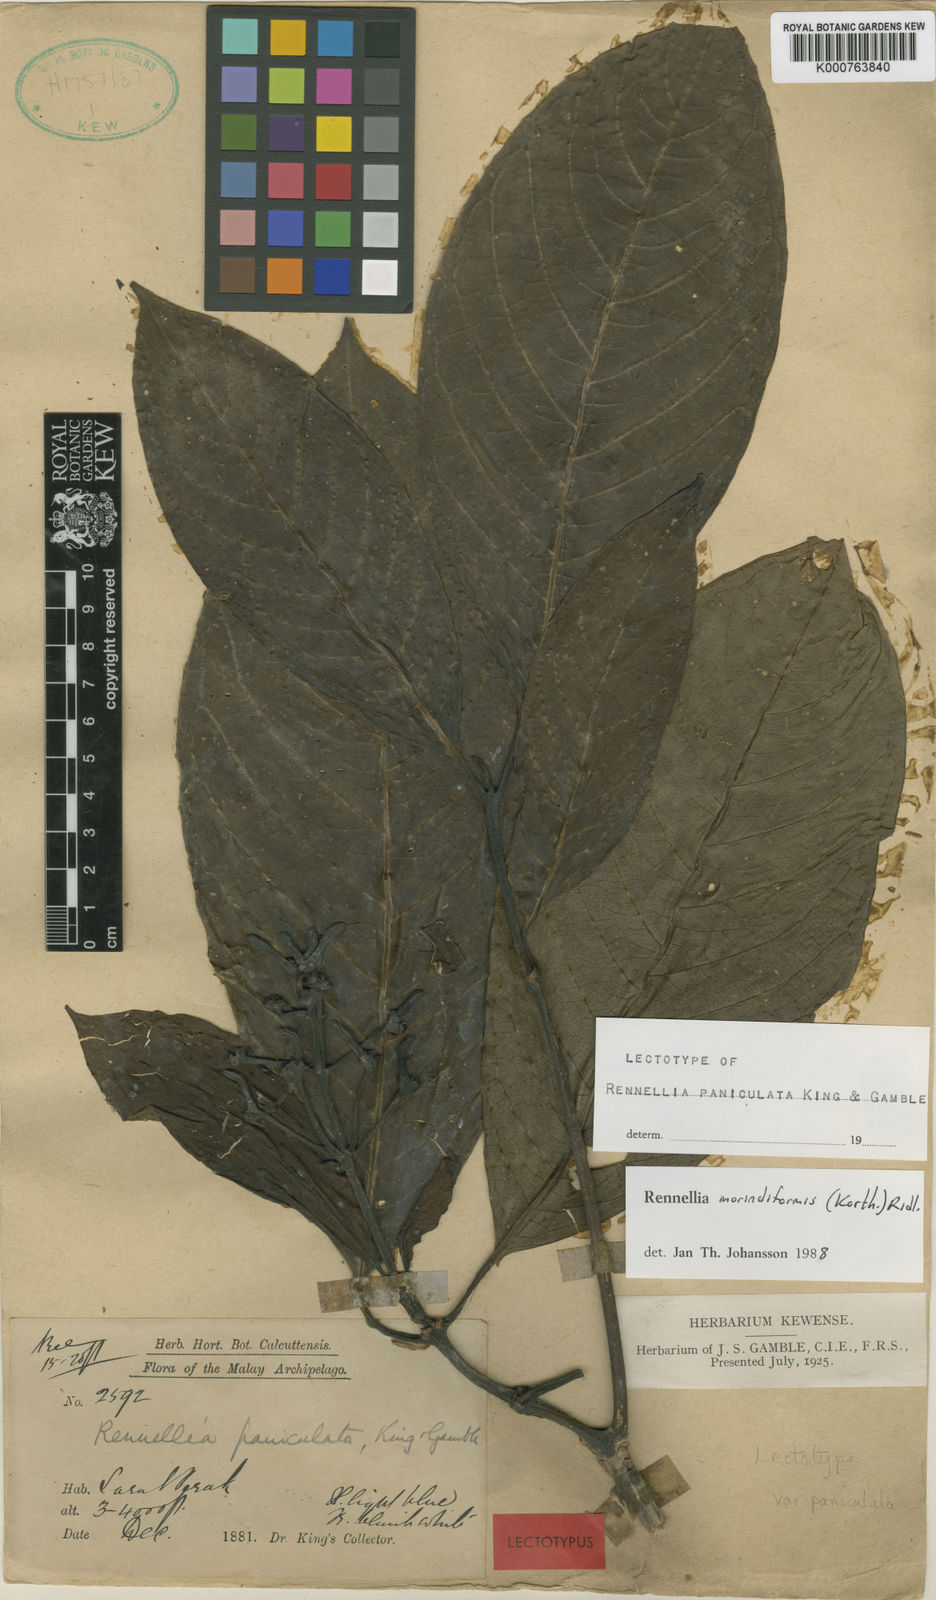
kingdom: Plantae
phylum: Tracheophyta
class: Magnoliopsida
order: Gentianales
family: Rubiaceae
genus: Rennellia
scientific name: Rennellia morindiformis
